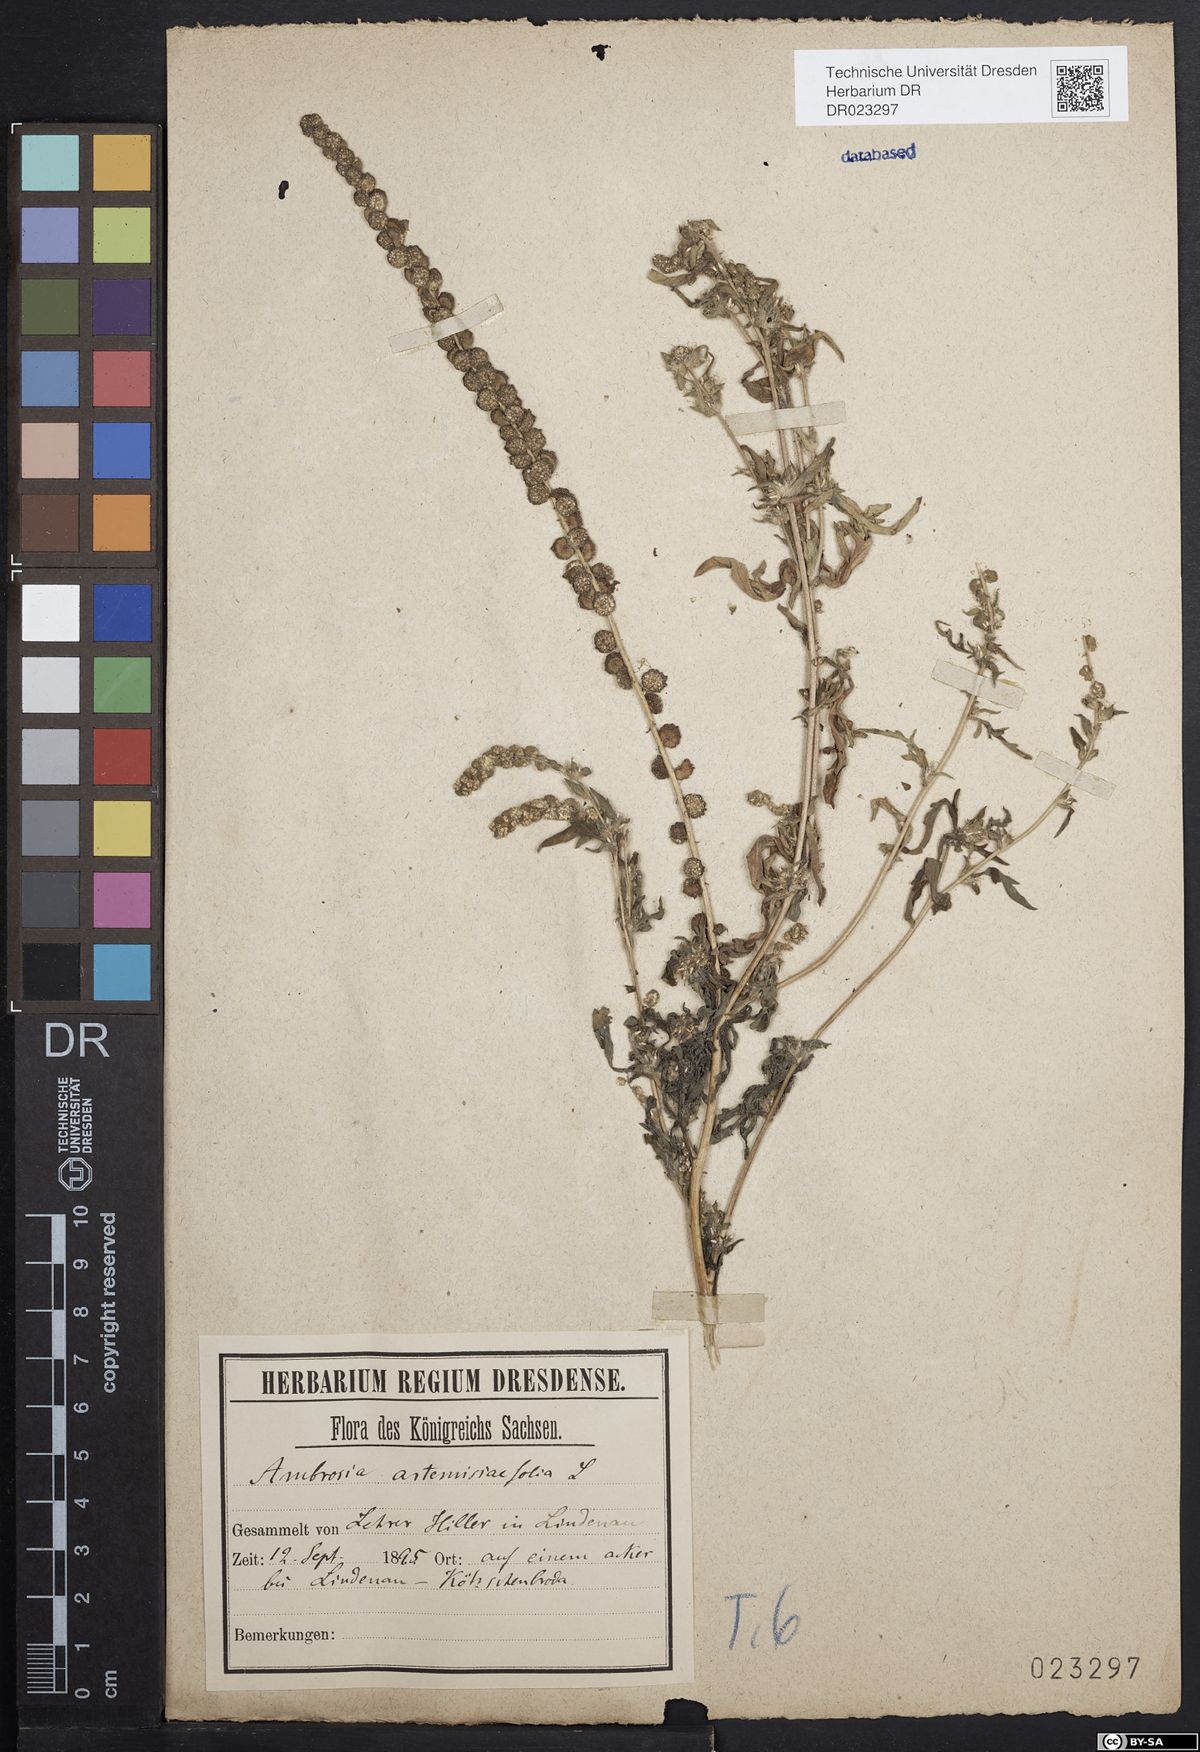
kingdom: Plantae
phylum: Tracheophyta
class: Magnoliopsida
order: Asterales
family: Asteraceae
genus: Ambrosia
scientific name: Ambrosia artemisiifolia
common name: Annual ragweed
